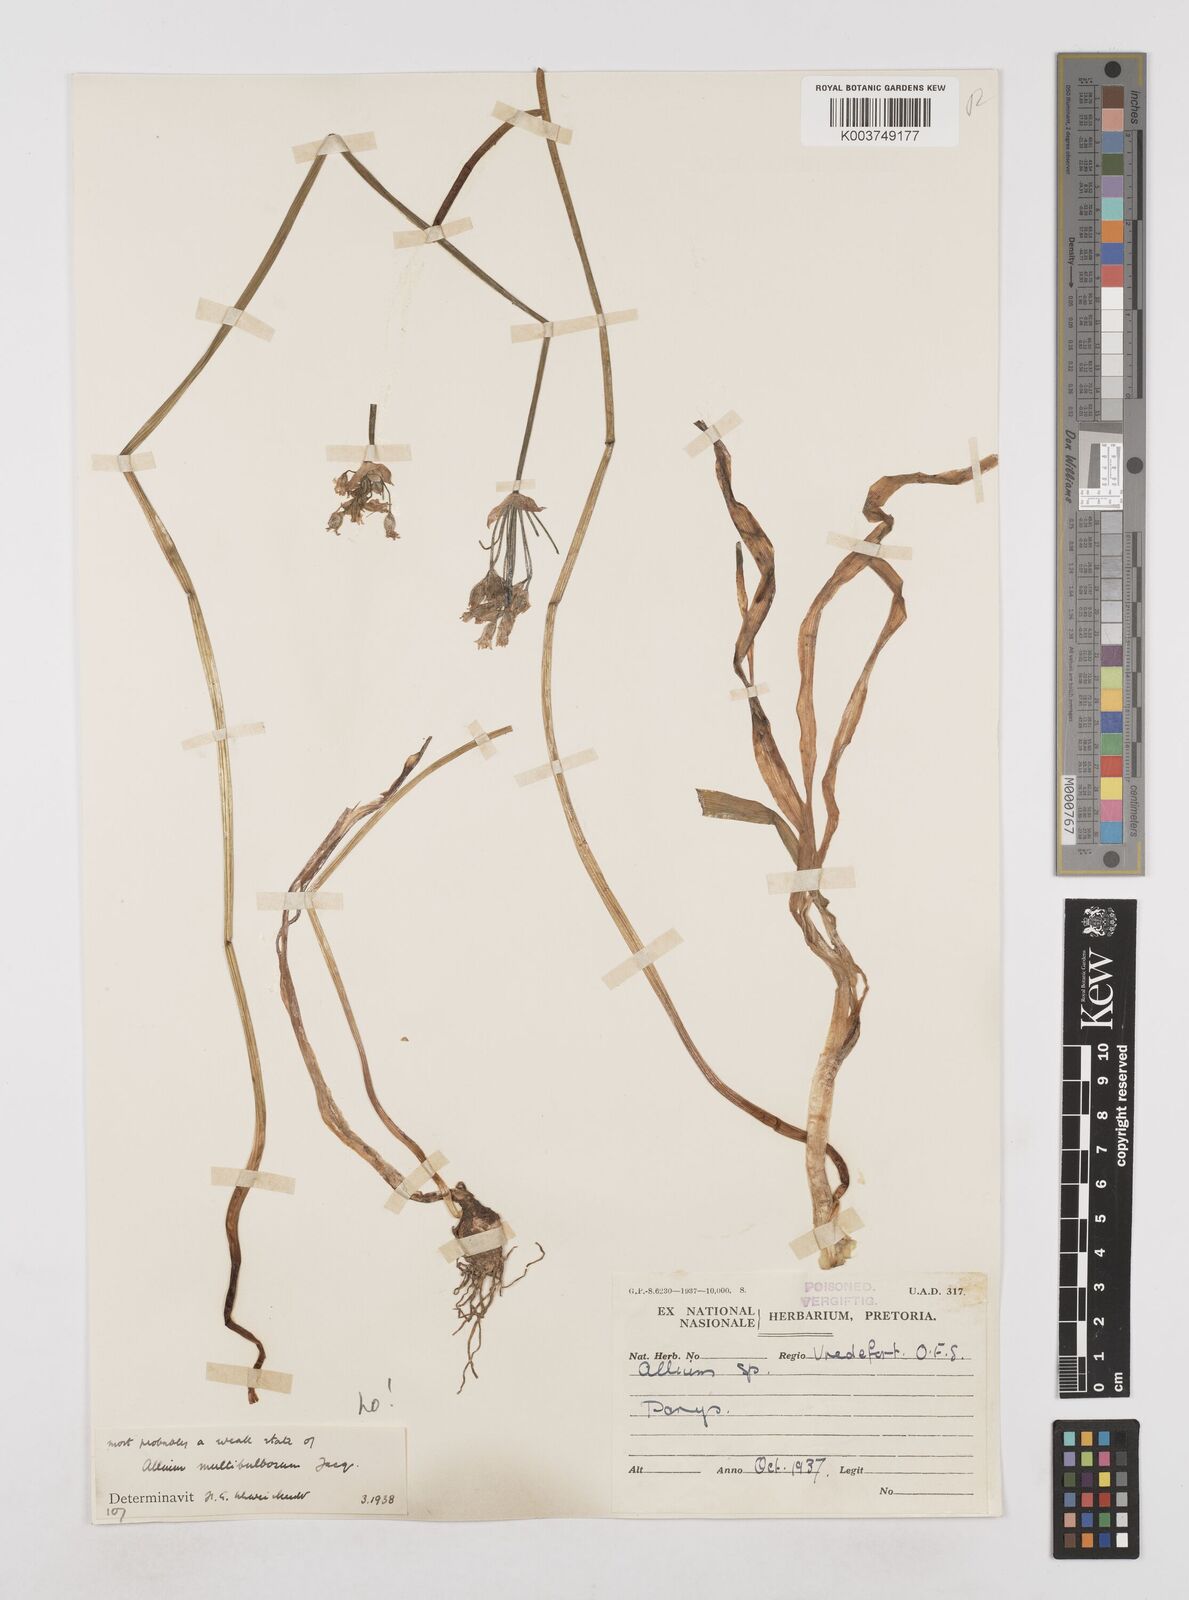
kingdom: Plantae
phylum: Tracheophyta
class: Liliopsida
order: Asparagales
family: Amaryllidaceae
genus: Allium
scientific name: Allium neapolitanum
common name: Neapolitan garlic
